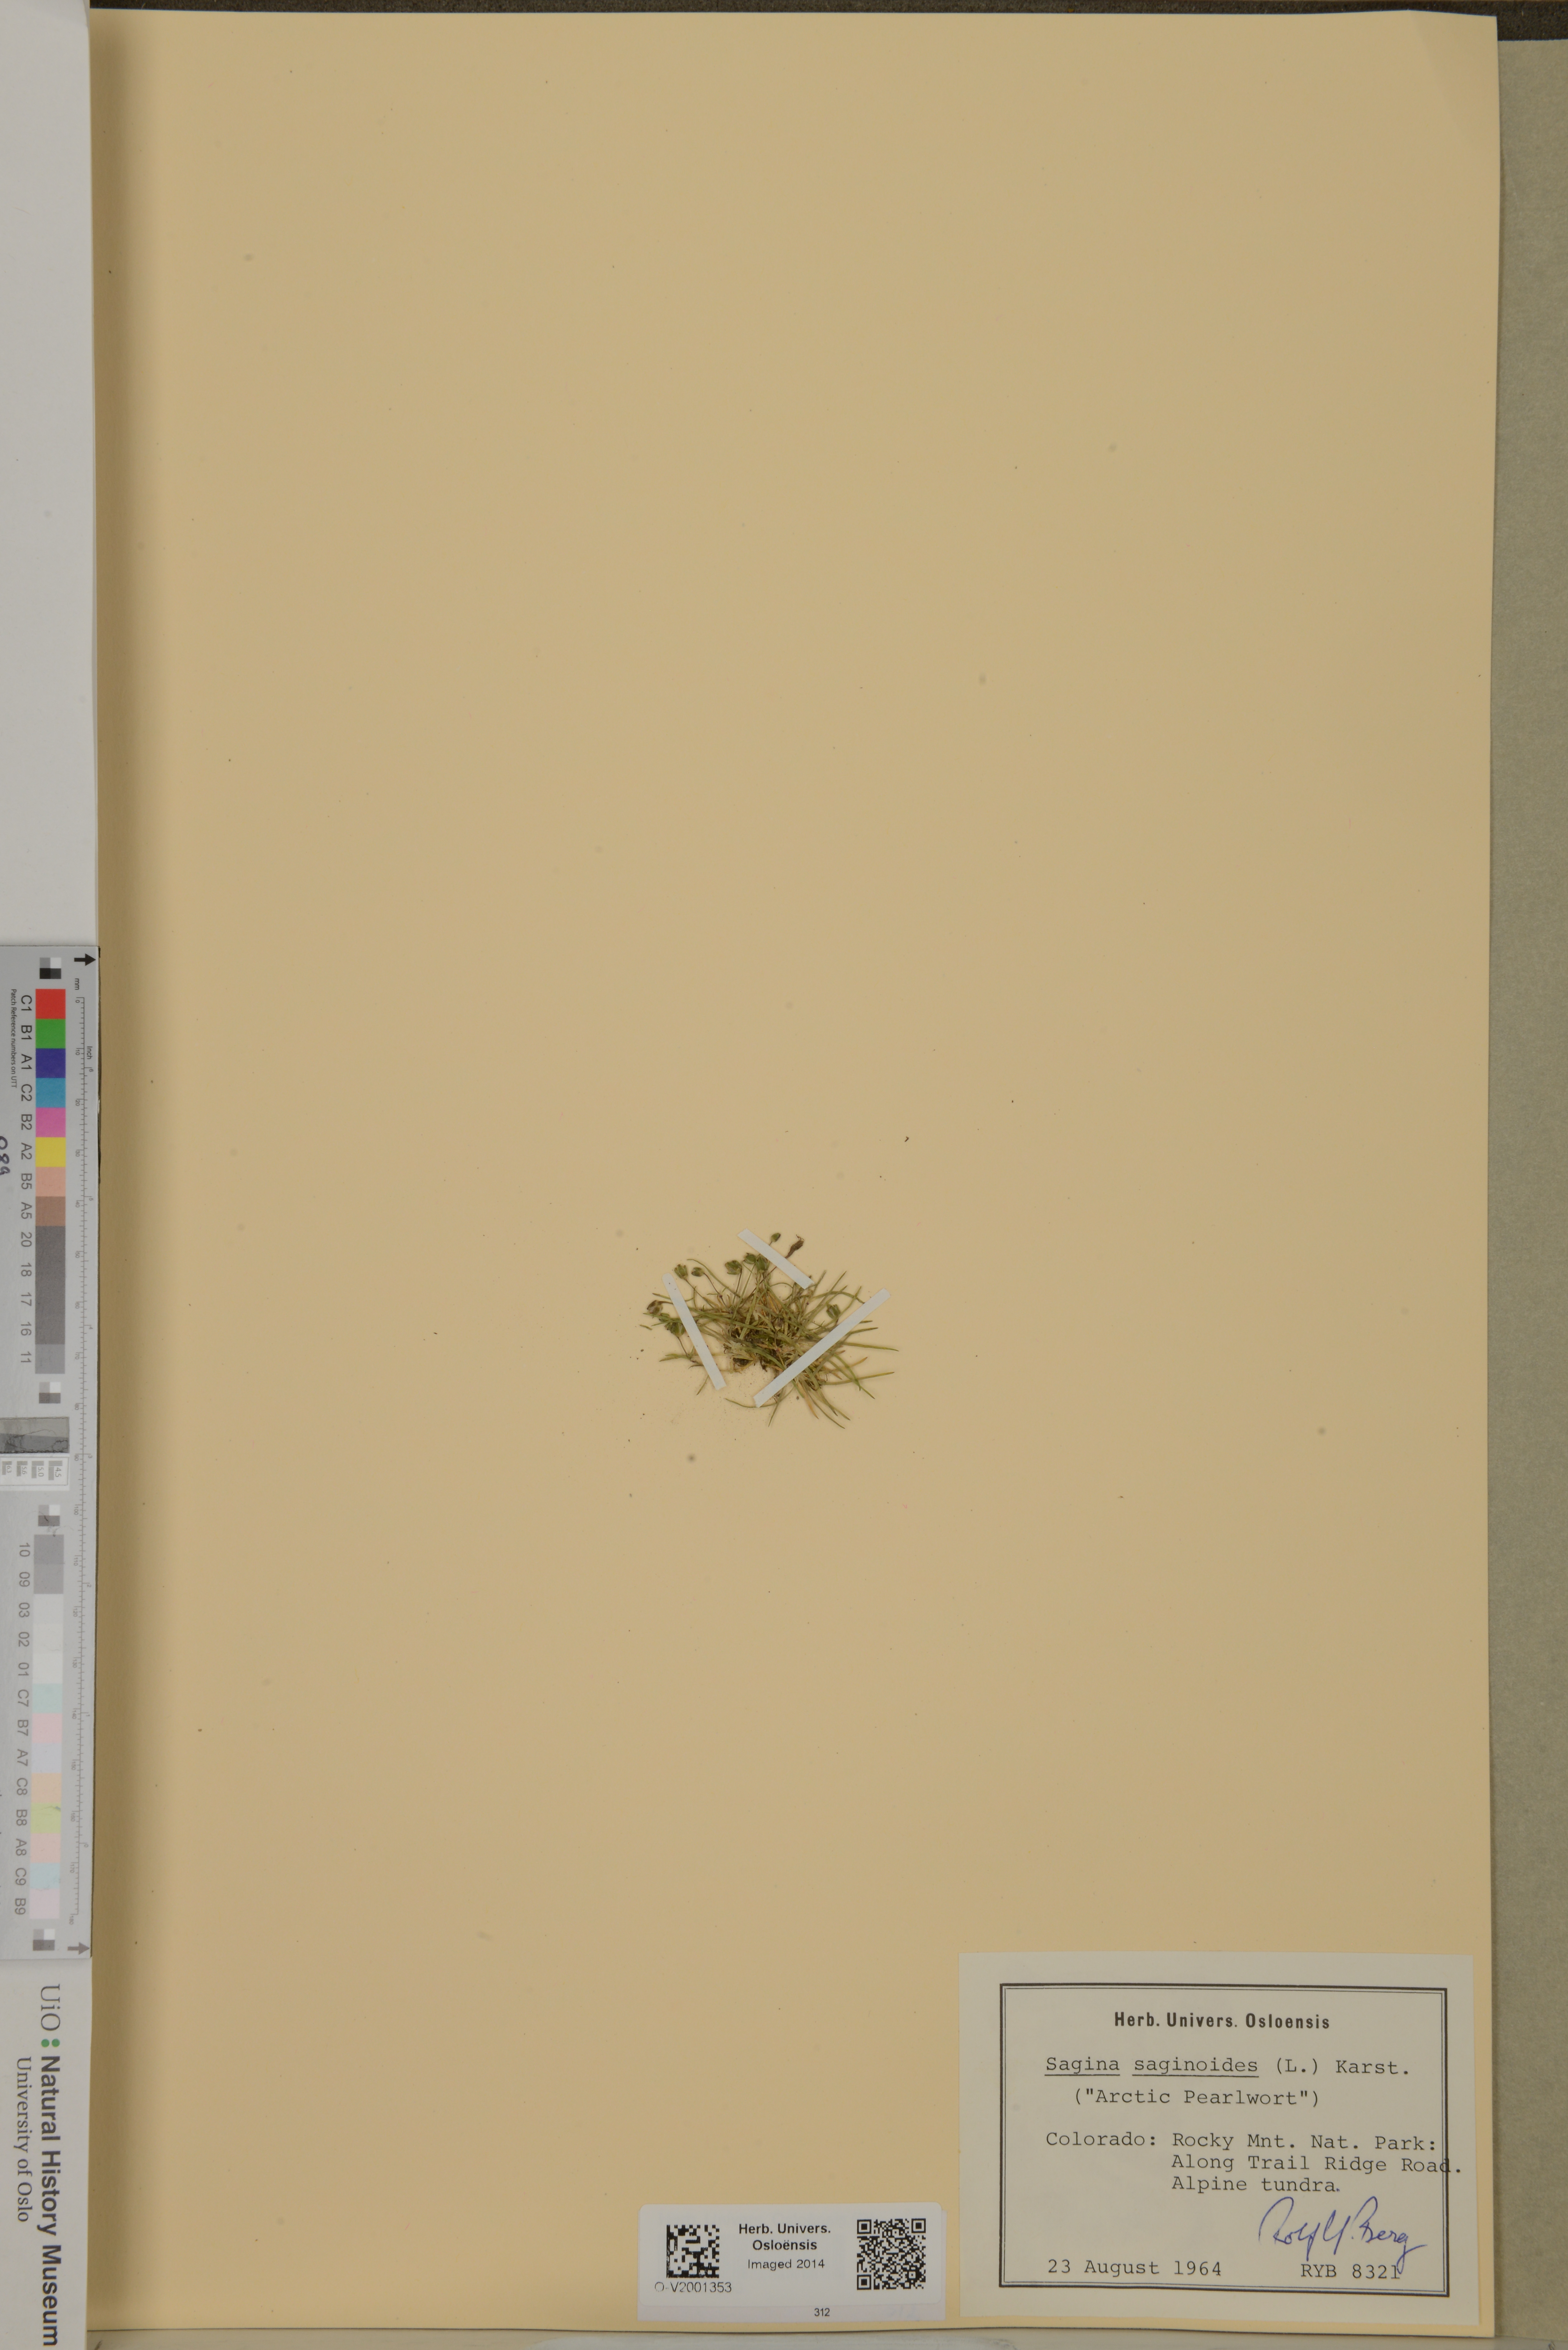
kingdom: Plantae
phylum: Tracheophyta
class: Magnoliopsida
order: Caryophyllales
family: Caryophyllaceae
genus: Sagina
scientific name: Sagina saginoides
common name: Alpine pearlwort
